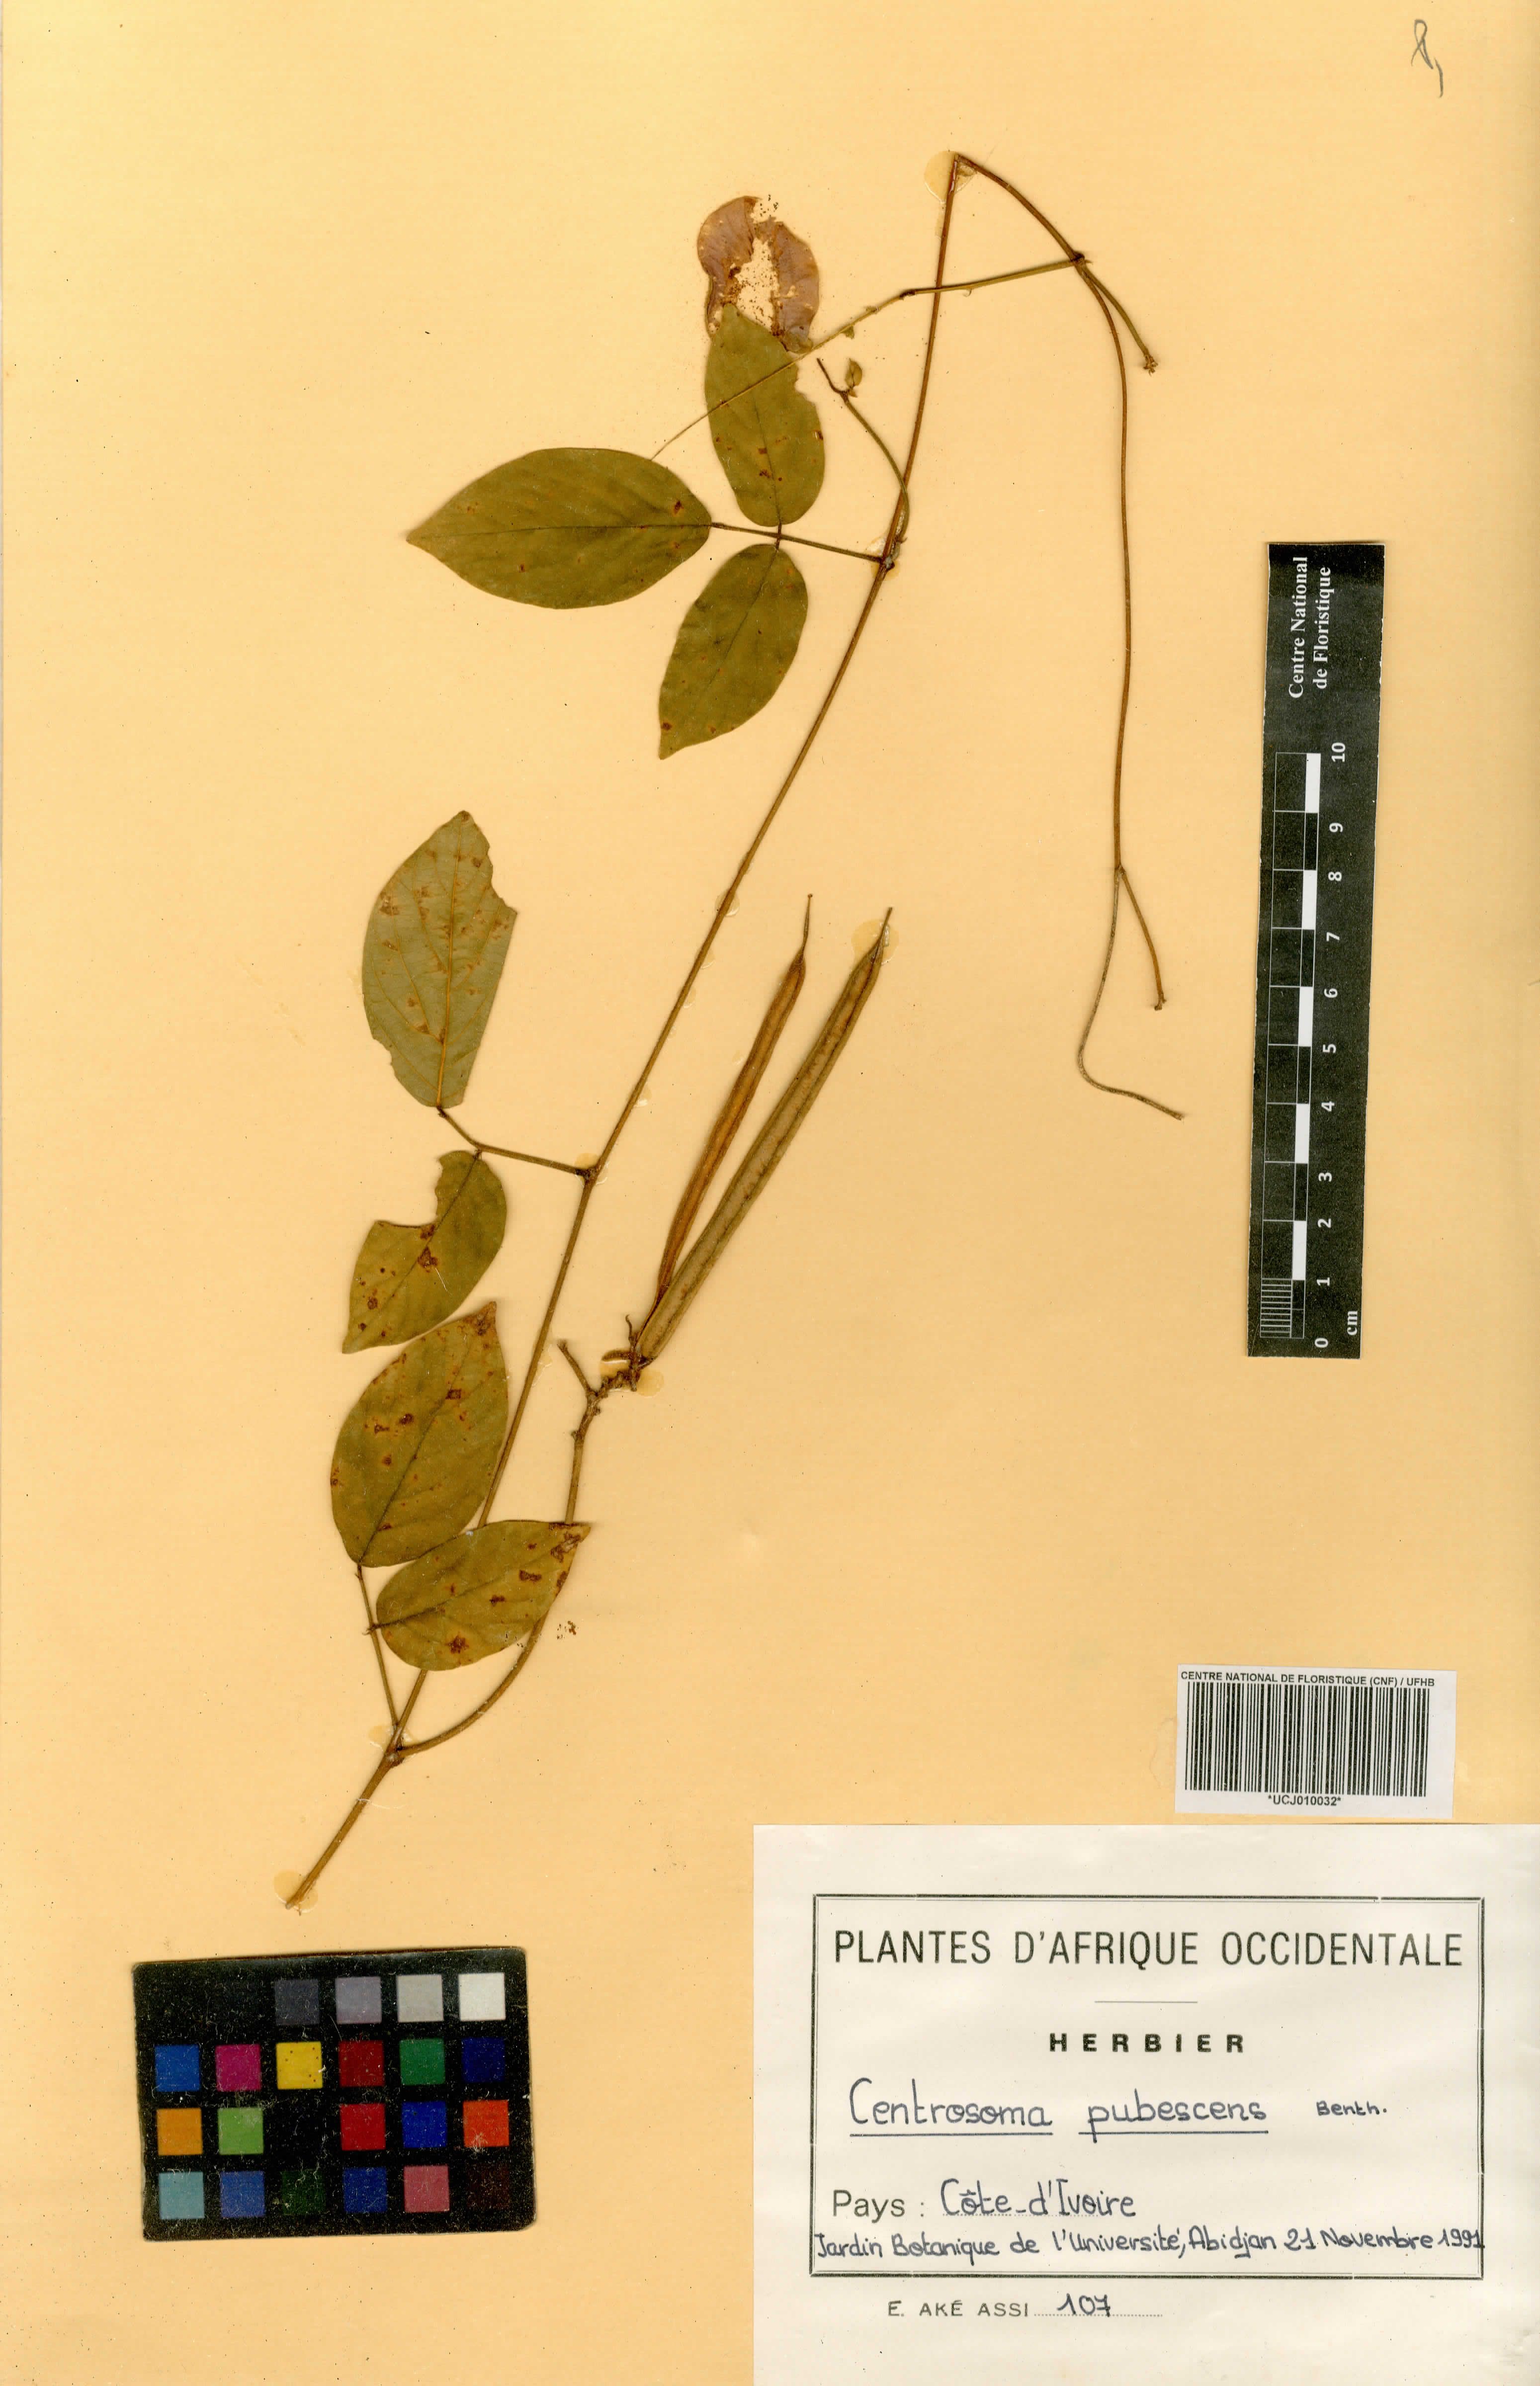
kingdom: Plantae
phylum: Tracheophyta
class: Magnoliopsida
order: Fabales
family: Fabaceae
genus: Centrosema
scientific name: Centrosema pubescens
